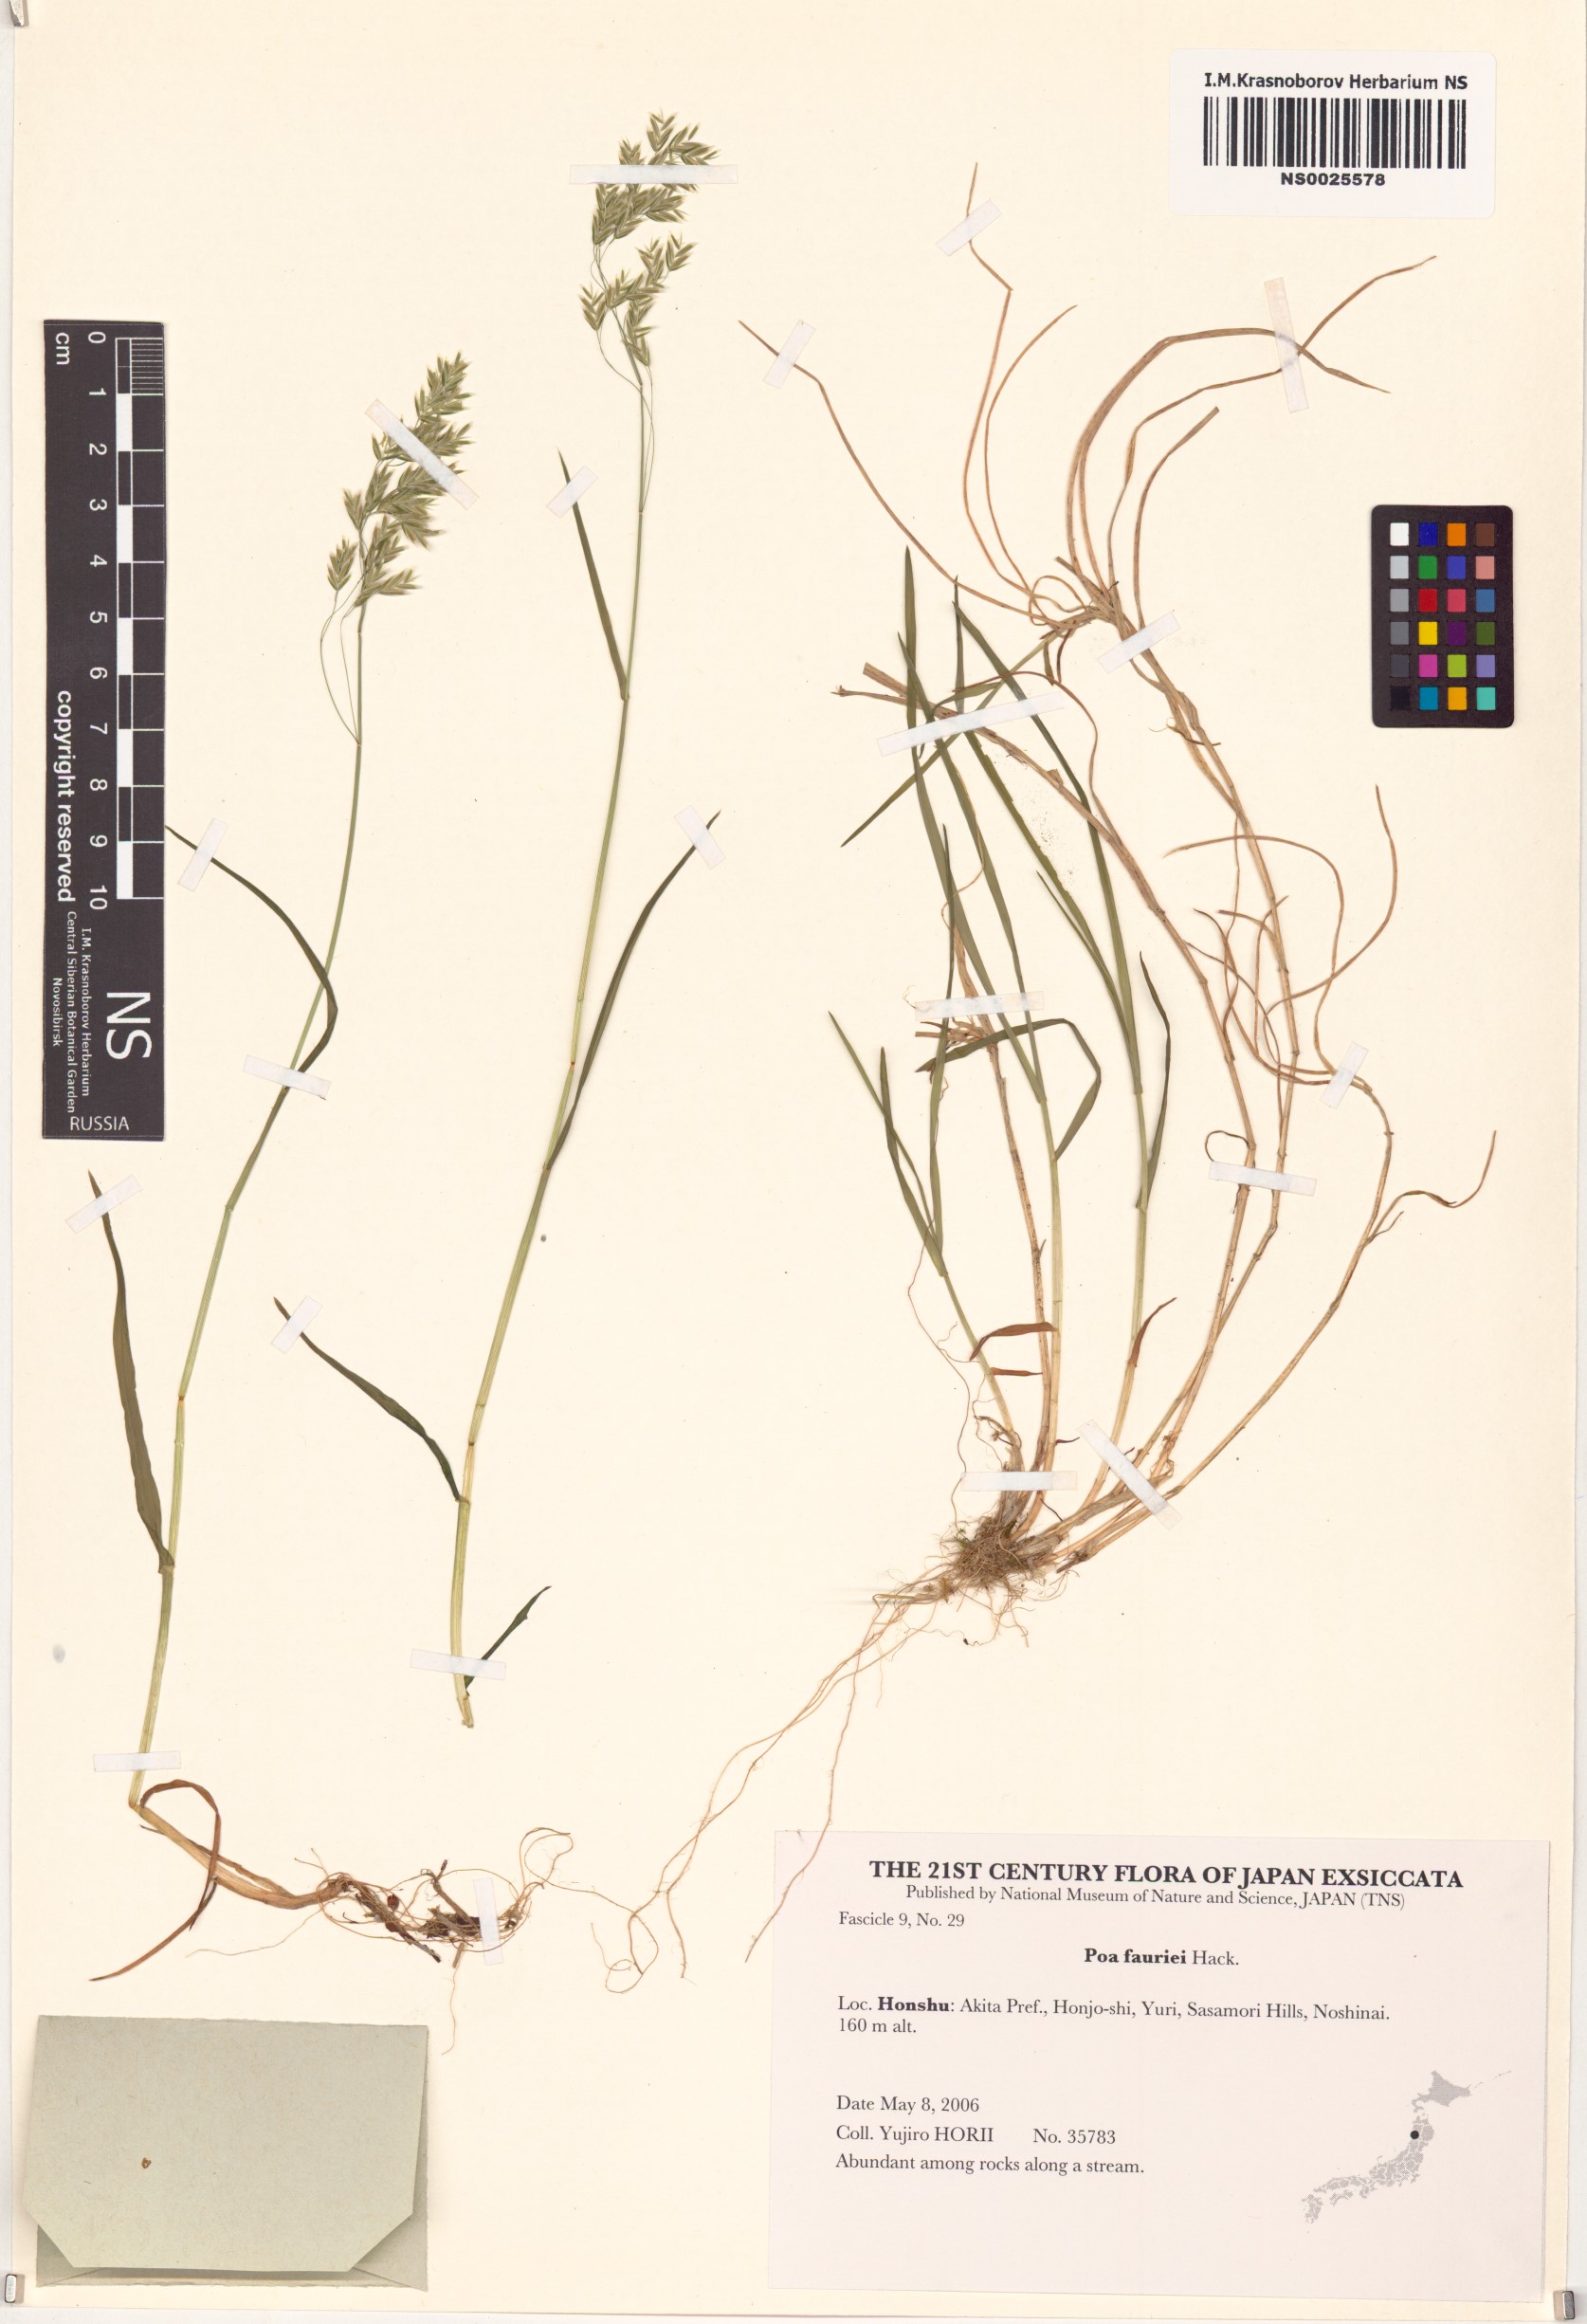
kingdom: Plantae
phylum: Tracheophyta
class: Liliopsida
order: Poales
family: Poaceae
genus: Poa
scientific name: Poa fauriei
